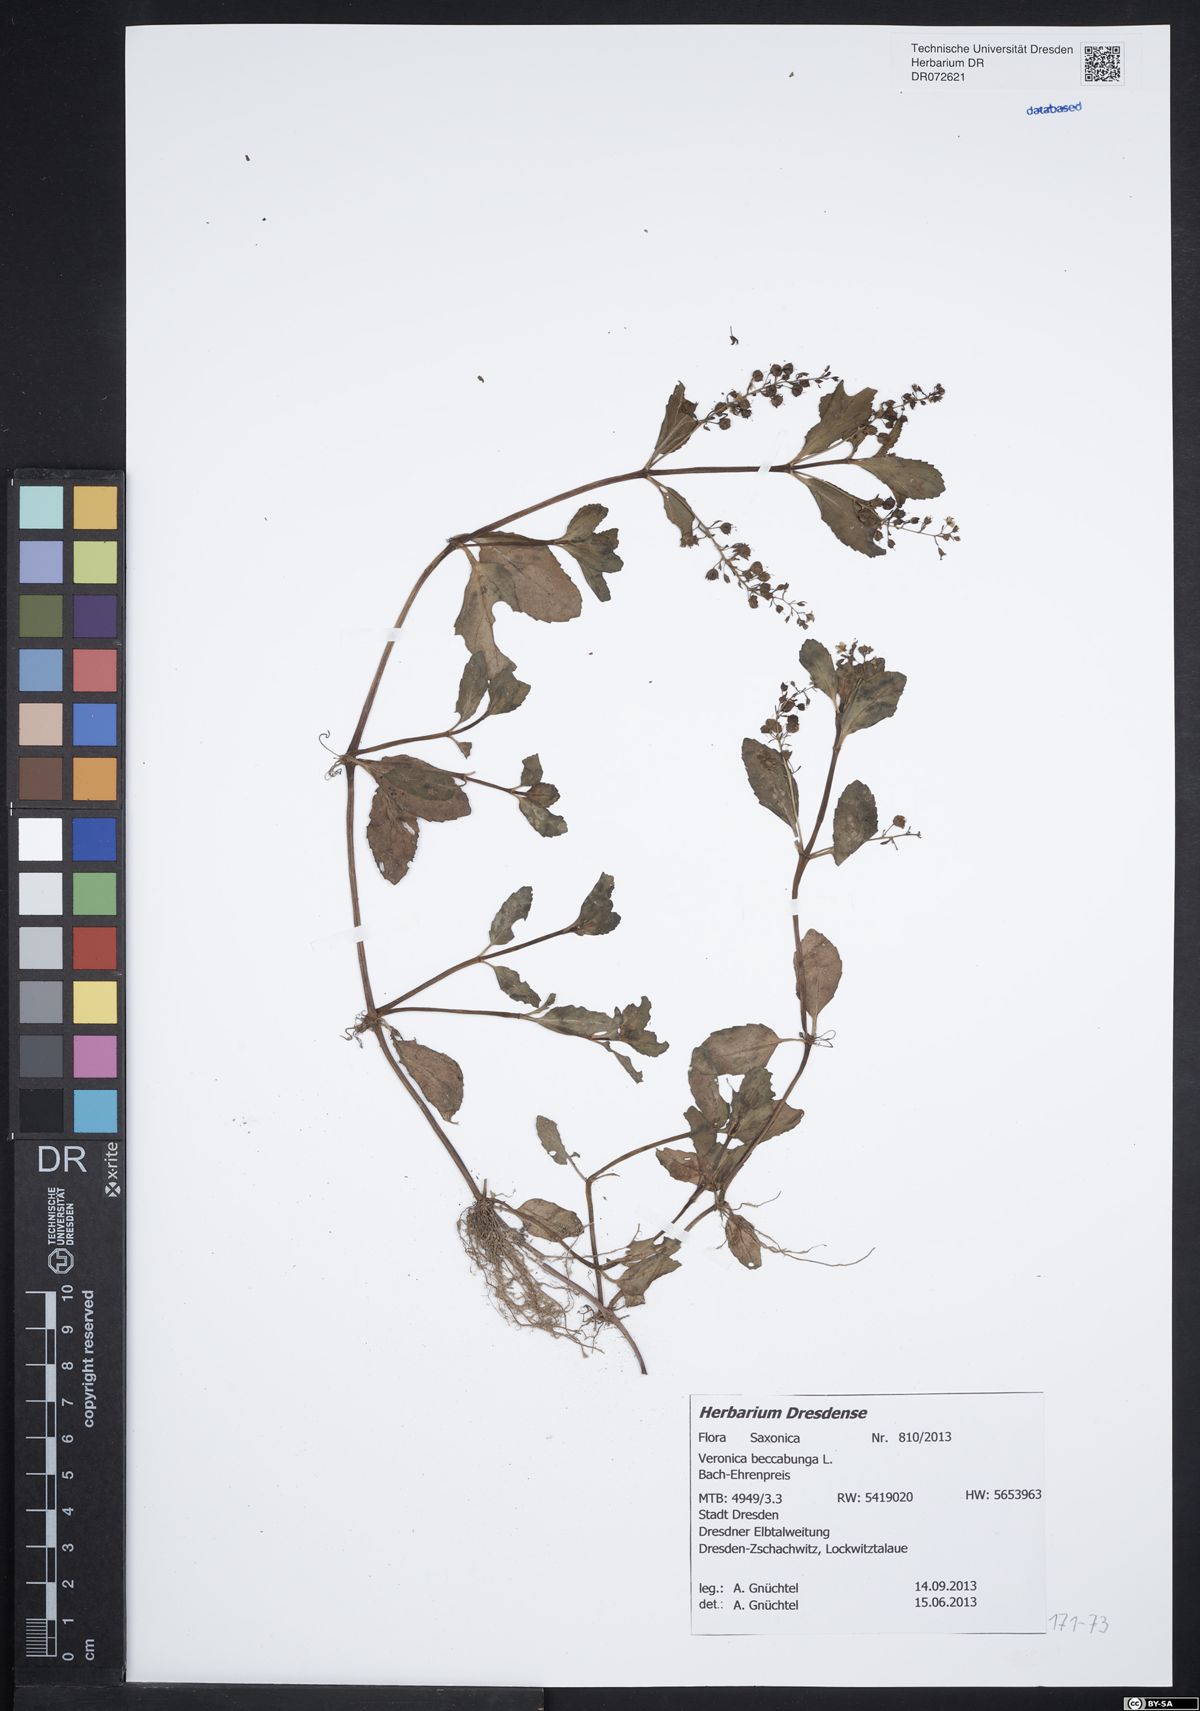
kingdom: Plantae
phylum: Tracheophyta
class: Magnoliopsida
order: Lamiales
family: Plantaginaceae
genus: Veronica
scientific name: Veronica beccabunga
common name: Brooklime
